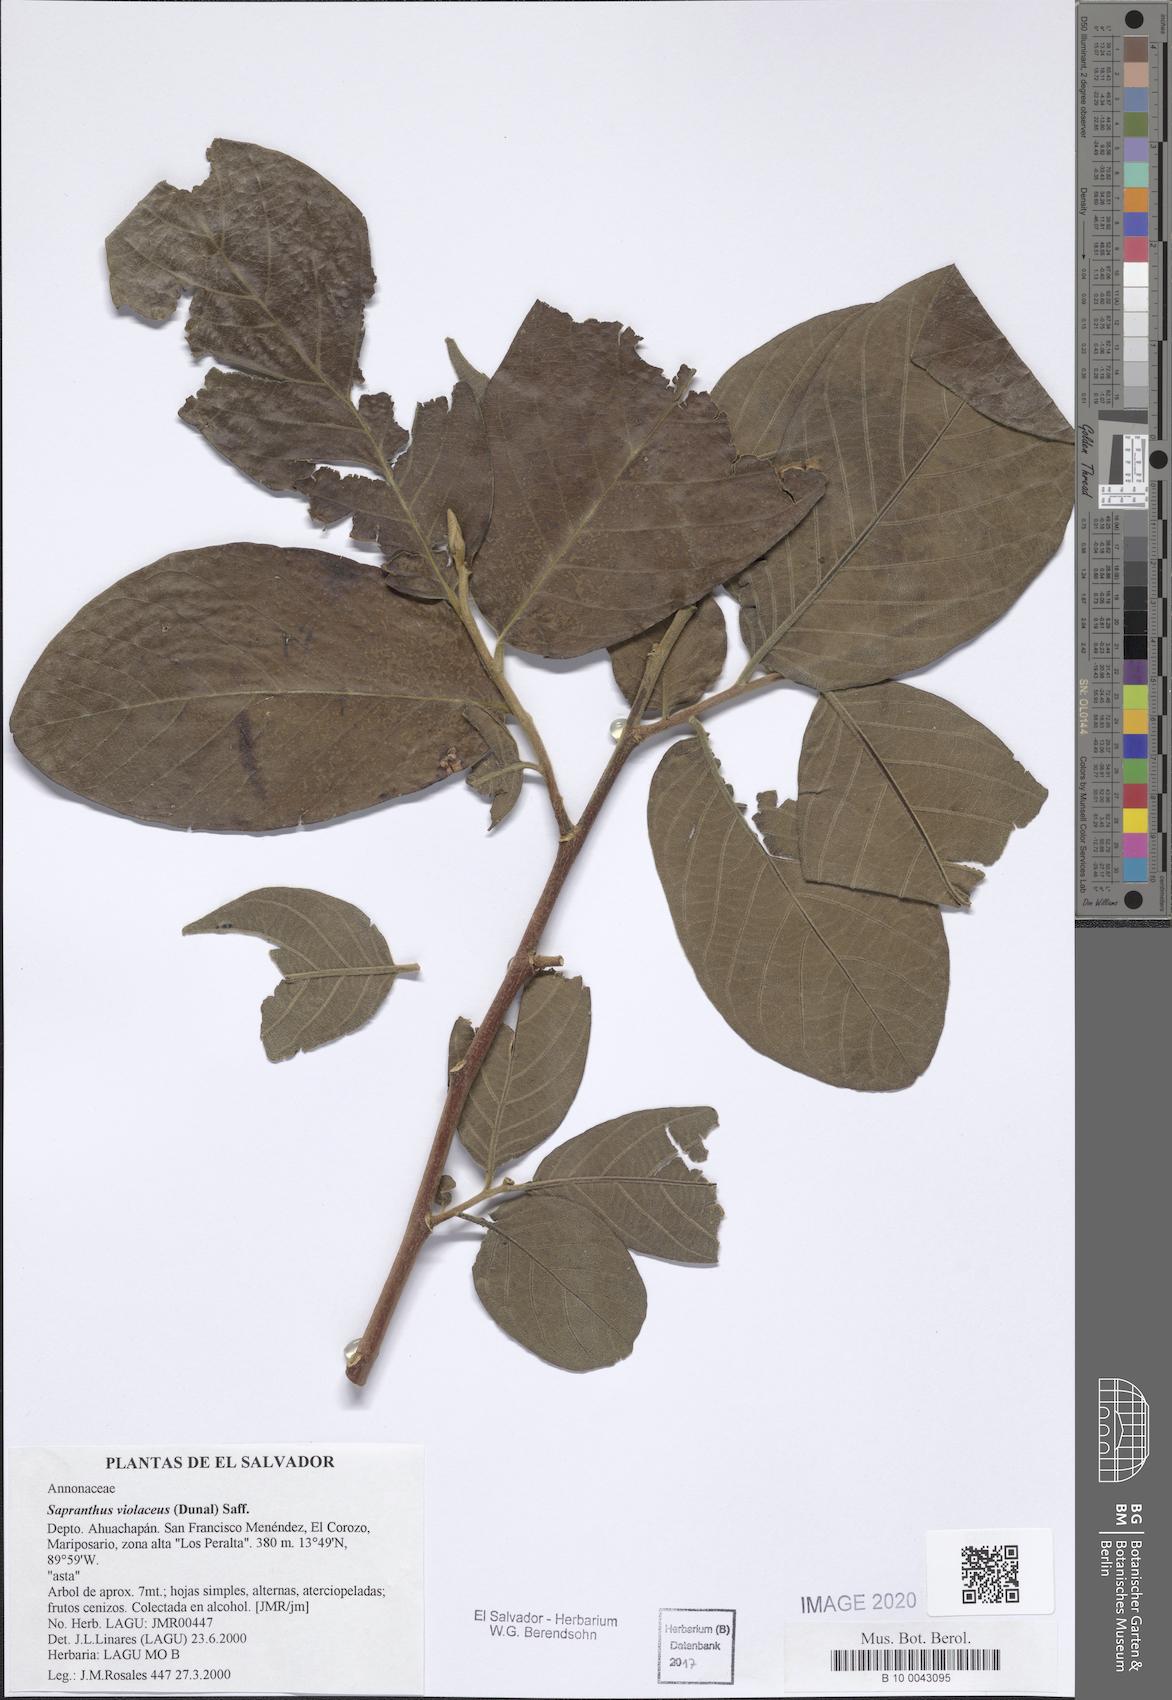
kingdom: Plantae
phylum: Tracheophyta
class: Magnoliopsida
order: Magnoliales
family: Annonaceae
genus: Sapranthus
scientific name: Sapranthus violaceus
